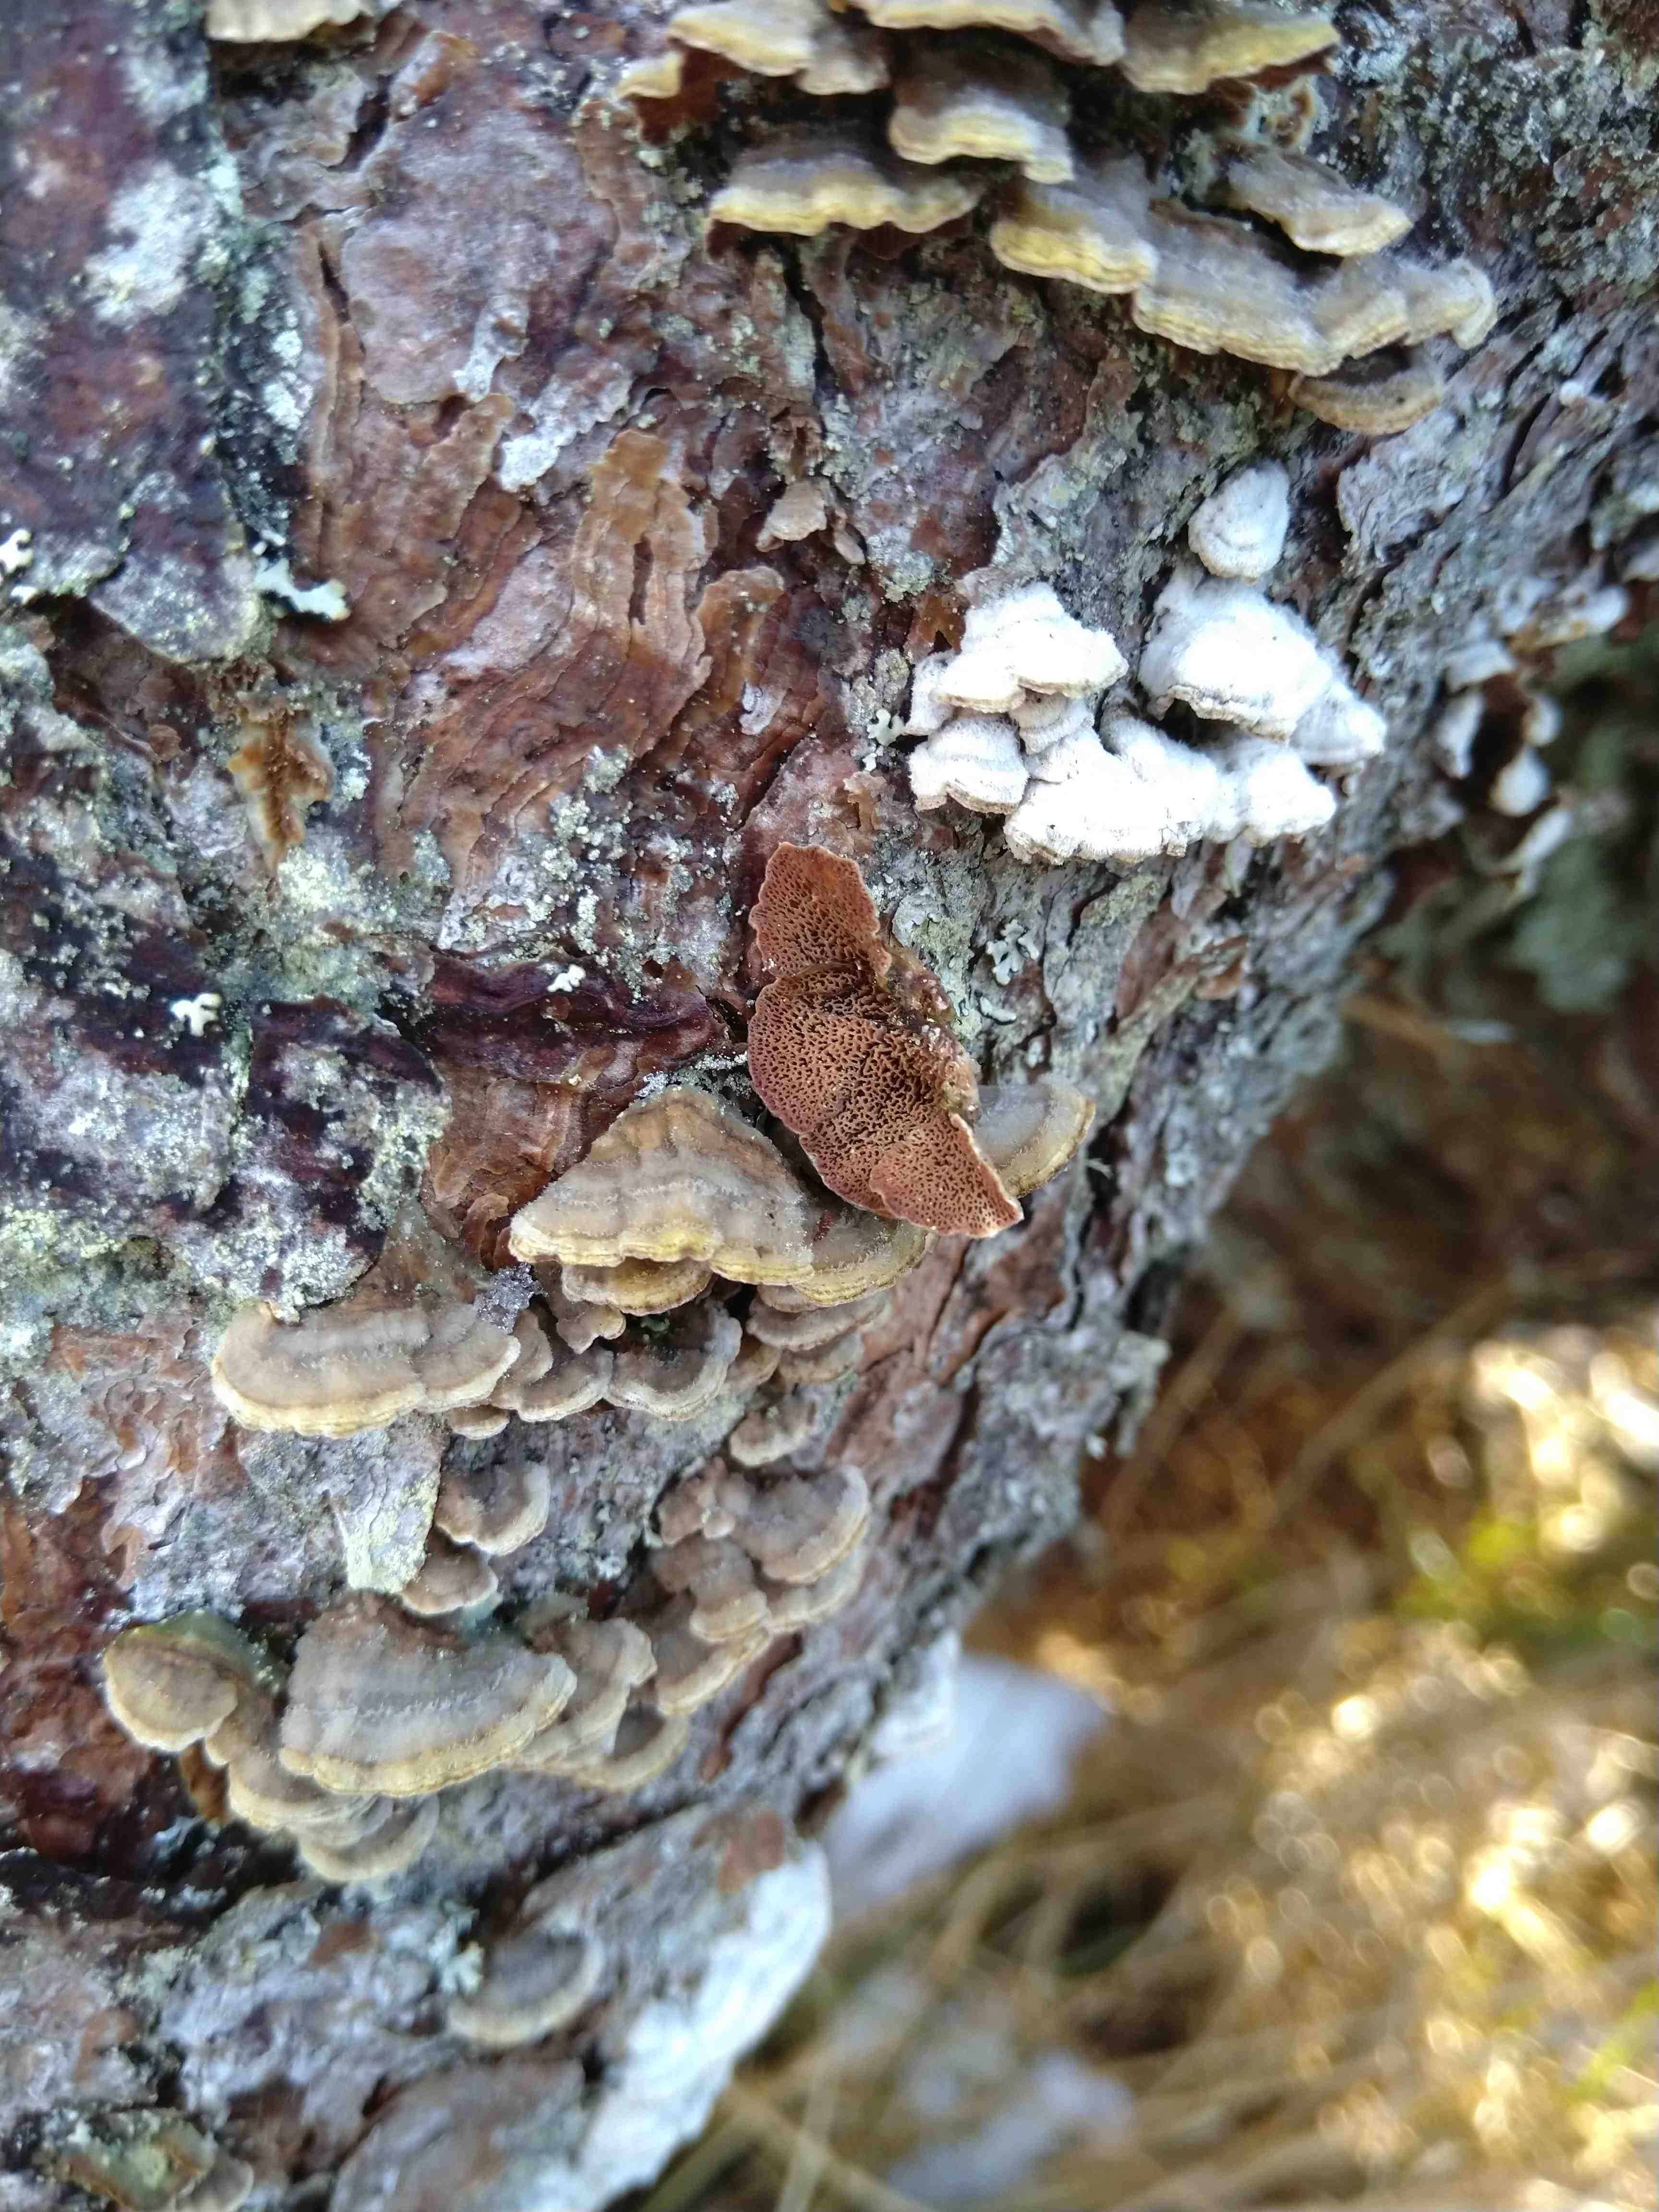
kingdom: Fungi
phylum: Basidiomycota
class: Agaricomycetes
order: Hymenochaetales
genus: Trichaptum
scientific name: Trichaptum fuscoviolaceum
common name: tandet violporesvamp
